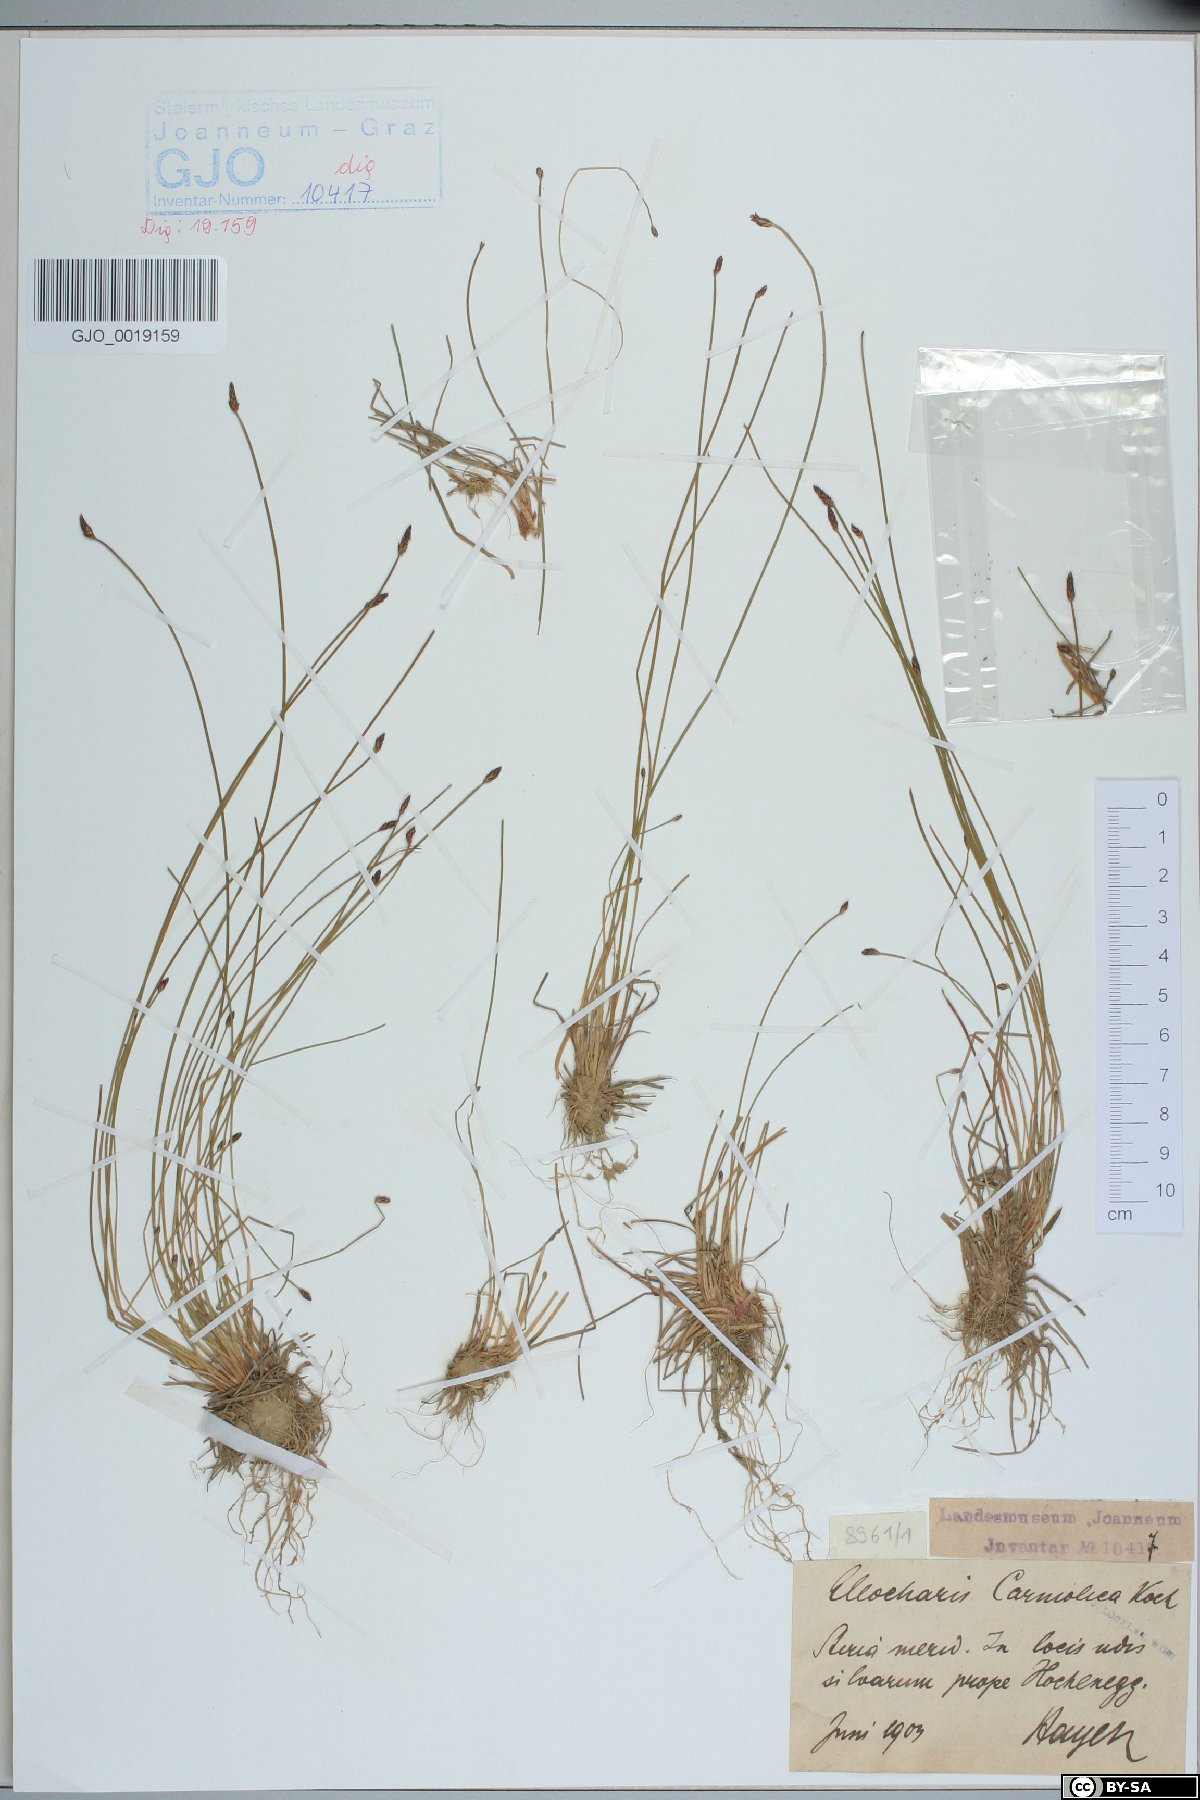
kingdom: Plantae
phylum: Tracheophyta
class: Liliopsida
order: Poales
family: Cyperaceae
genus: Eleocharis
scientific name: Eleocharis carniolica
